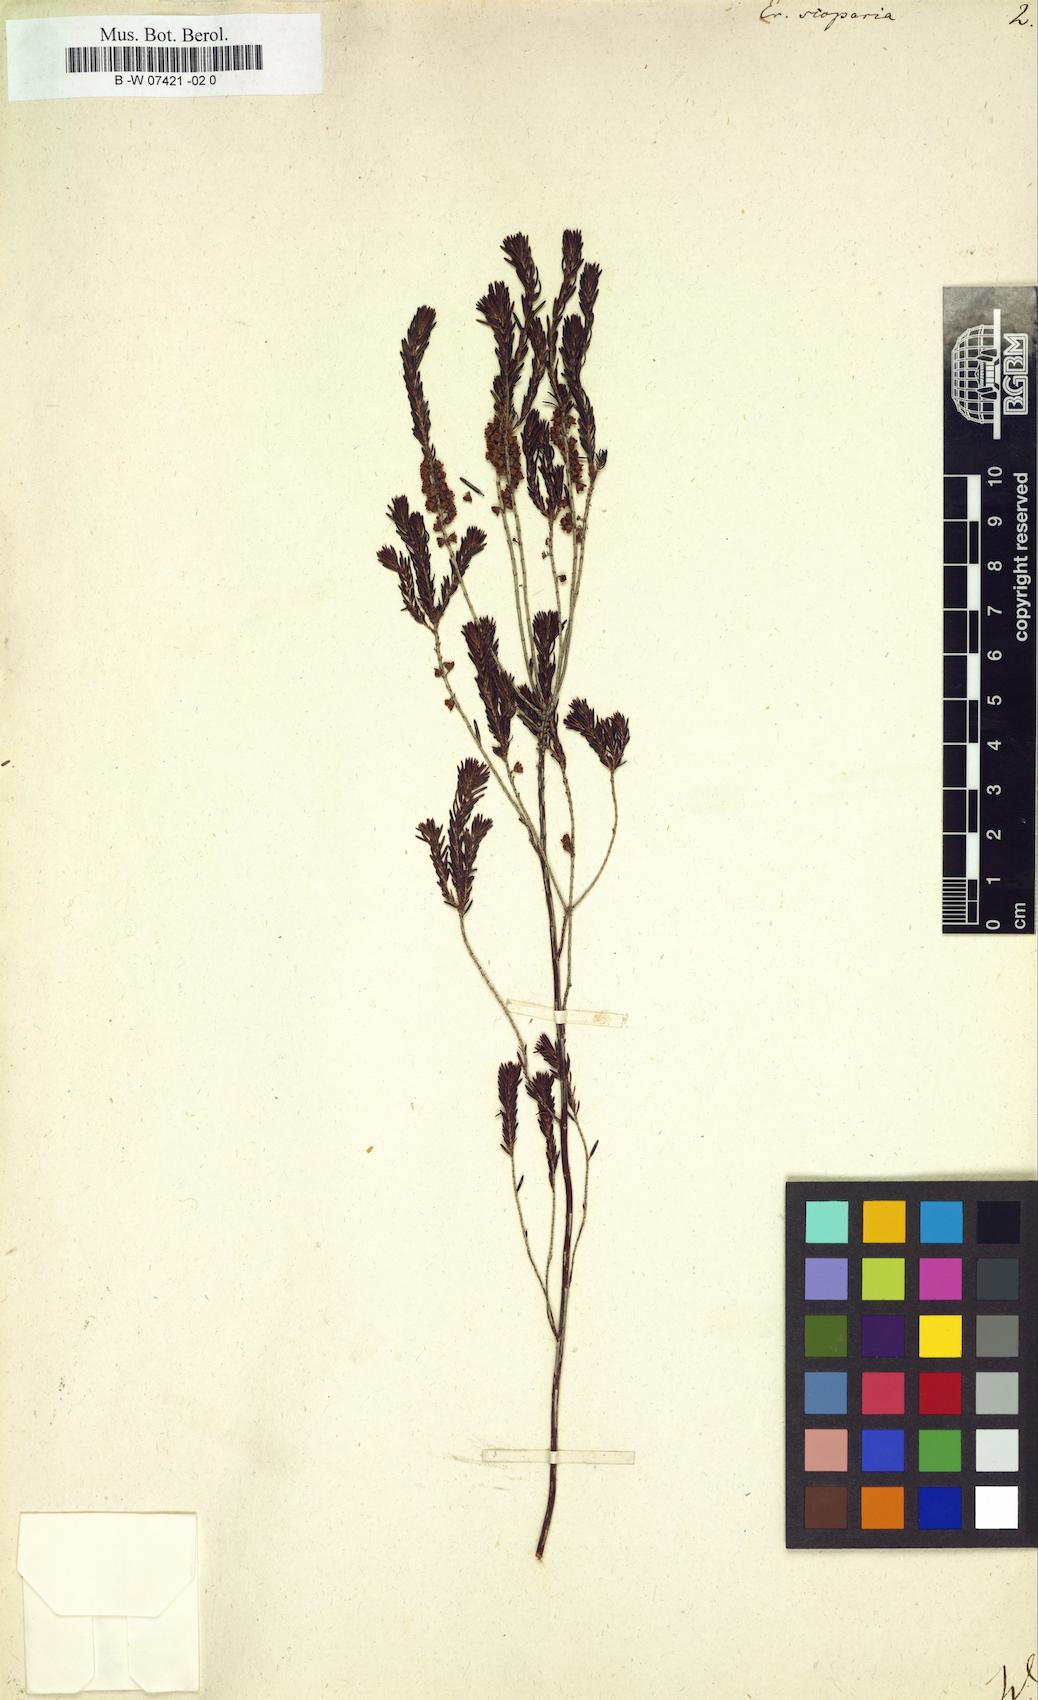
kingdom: Plantae
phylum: Tracheophyta
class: Magnoliopsida
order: Ericales
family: Ericaceae
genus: Erica
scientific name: Erica scoparia
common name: Green heather
